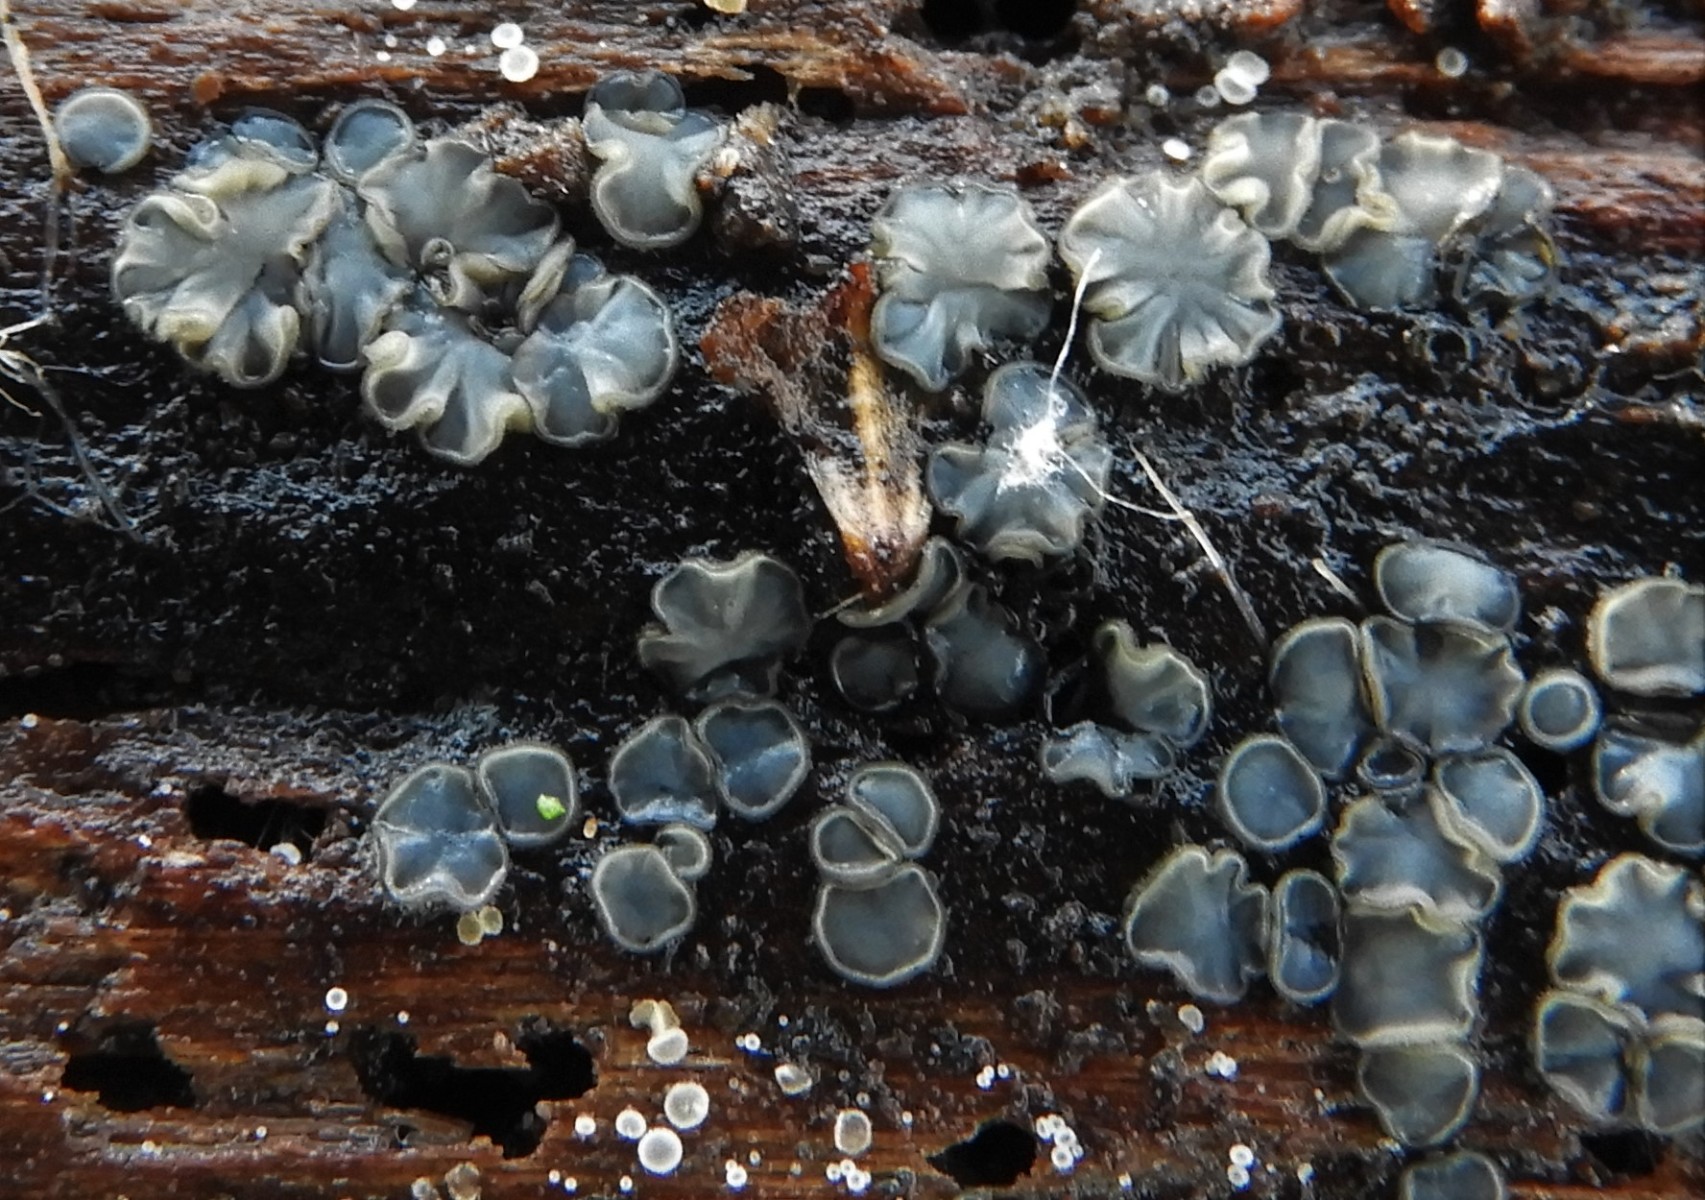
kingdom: Fungi
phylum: Ascomycota
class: Leotiomycetes
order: Helotiales
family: Mollisiaceae
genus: Mollisia
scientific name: Mollisia
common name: gråskive
